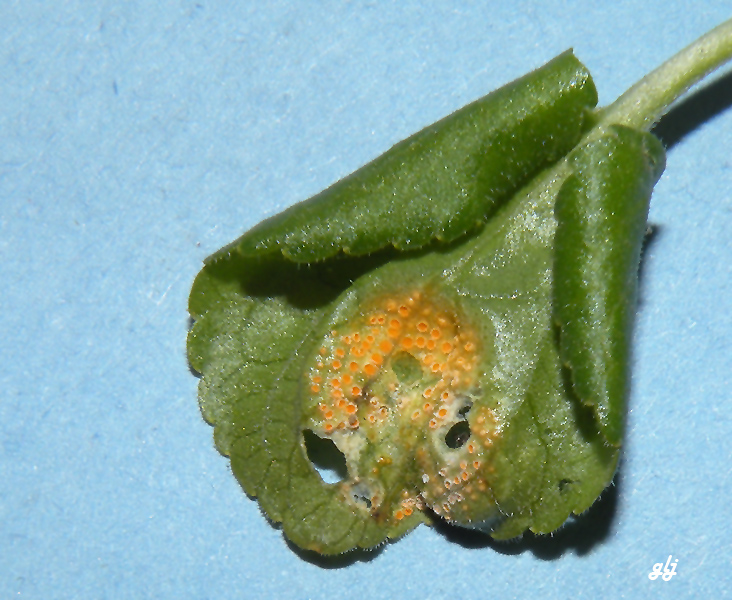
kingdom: Fungi
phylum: Basidiomycota
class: Pucciniomycetes
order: Pucciniales
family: Pucciniaceae
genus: Uromyces
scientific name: Uromyces dactylidis
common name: ranunkel-encellerust
